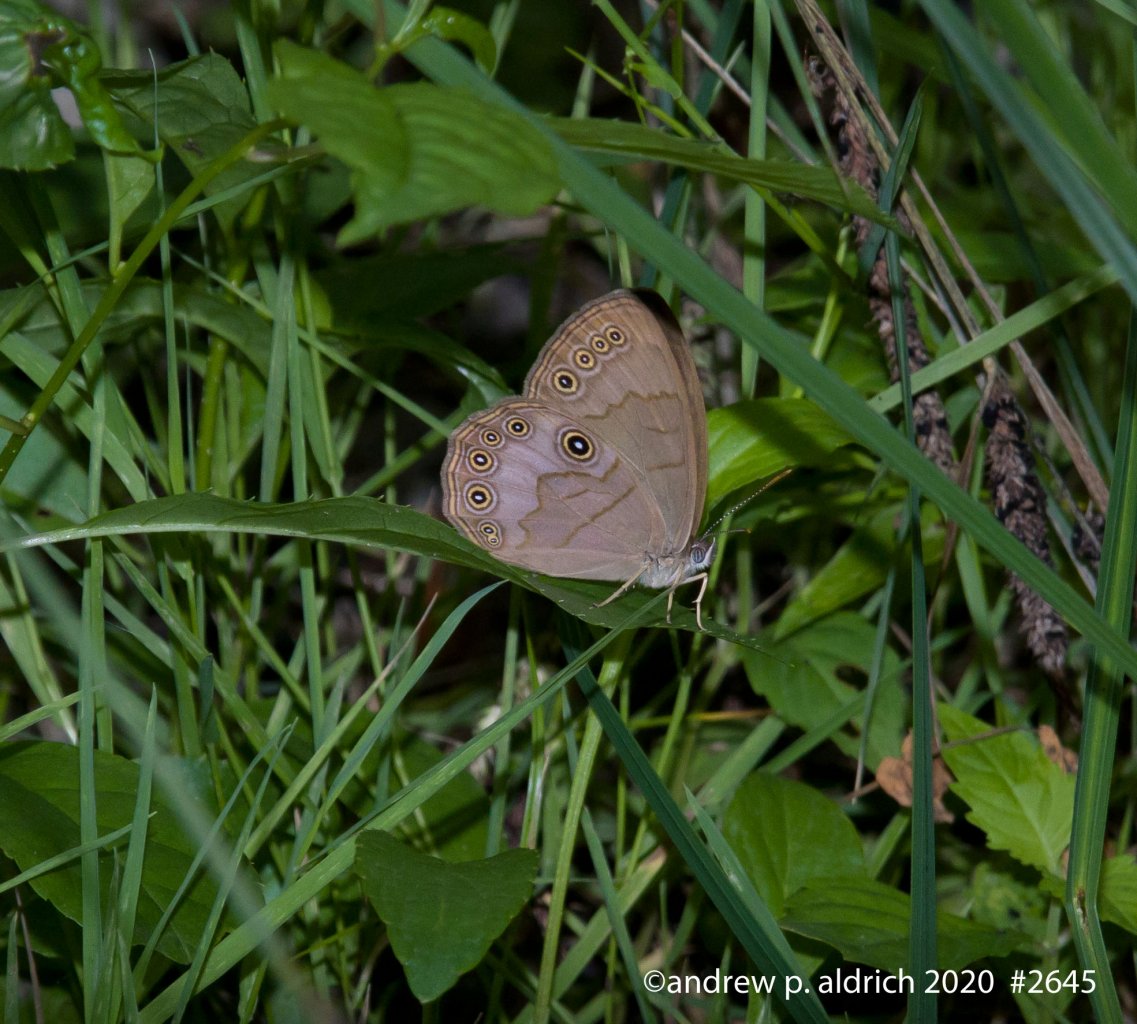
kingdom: Animalia
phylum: Arthropoda
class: Insecta
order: Lepidoptera
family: Nymphalidae
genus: Lethe
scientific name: Lethe eurydice
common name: Appalachian Eyed Brown
